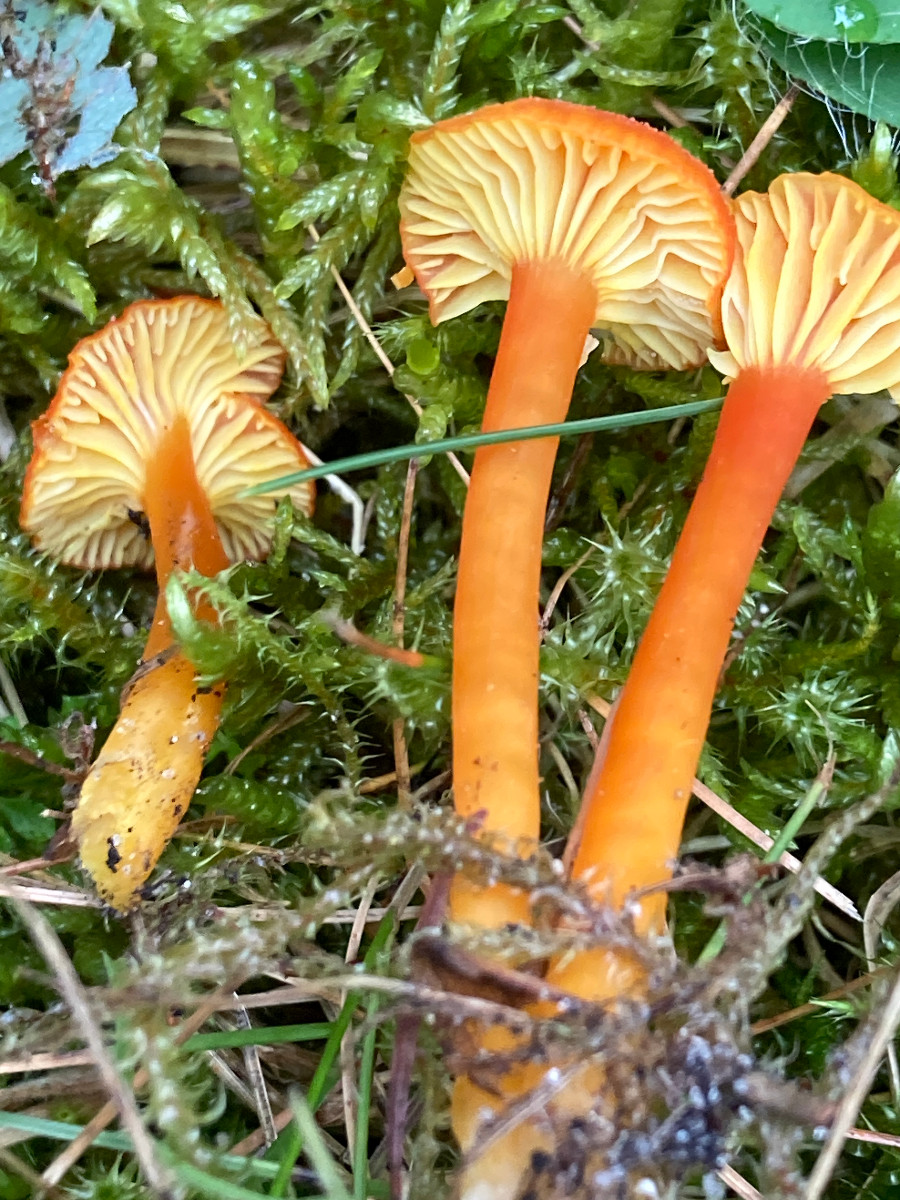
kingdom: Fungi
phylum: Basidiomycota
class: Agaricomycetes
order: Agaricales
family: Hygrophoraceae
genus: Hygrocybe
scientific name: Hygrocybe cantharellus
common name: kantarel-vokshat
